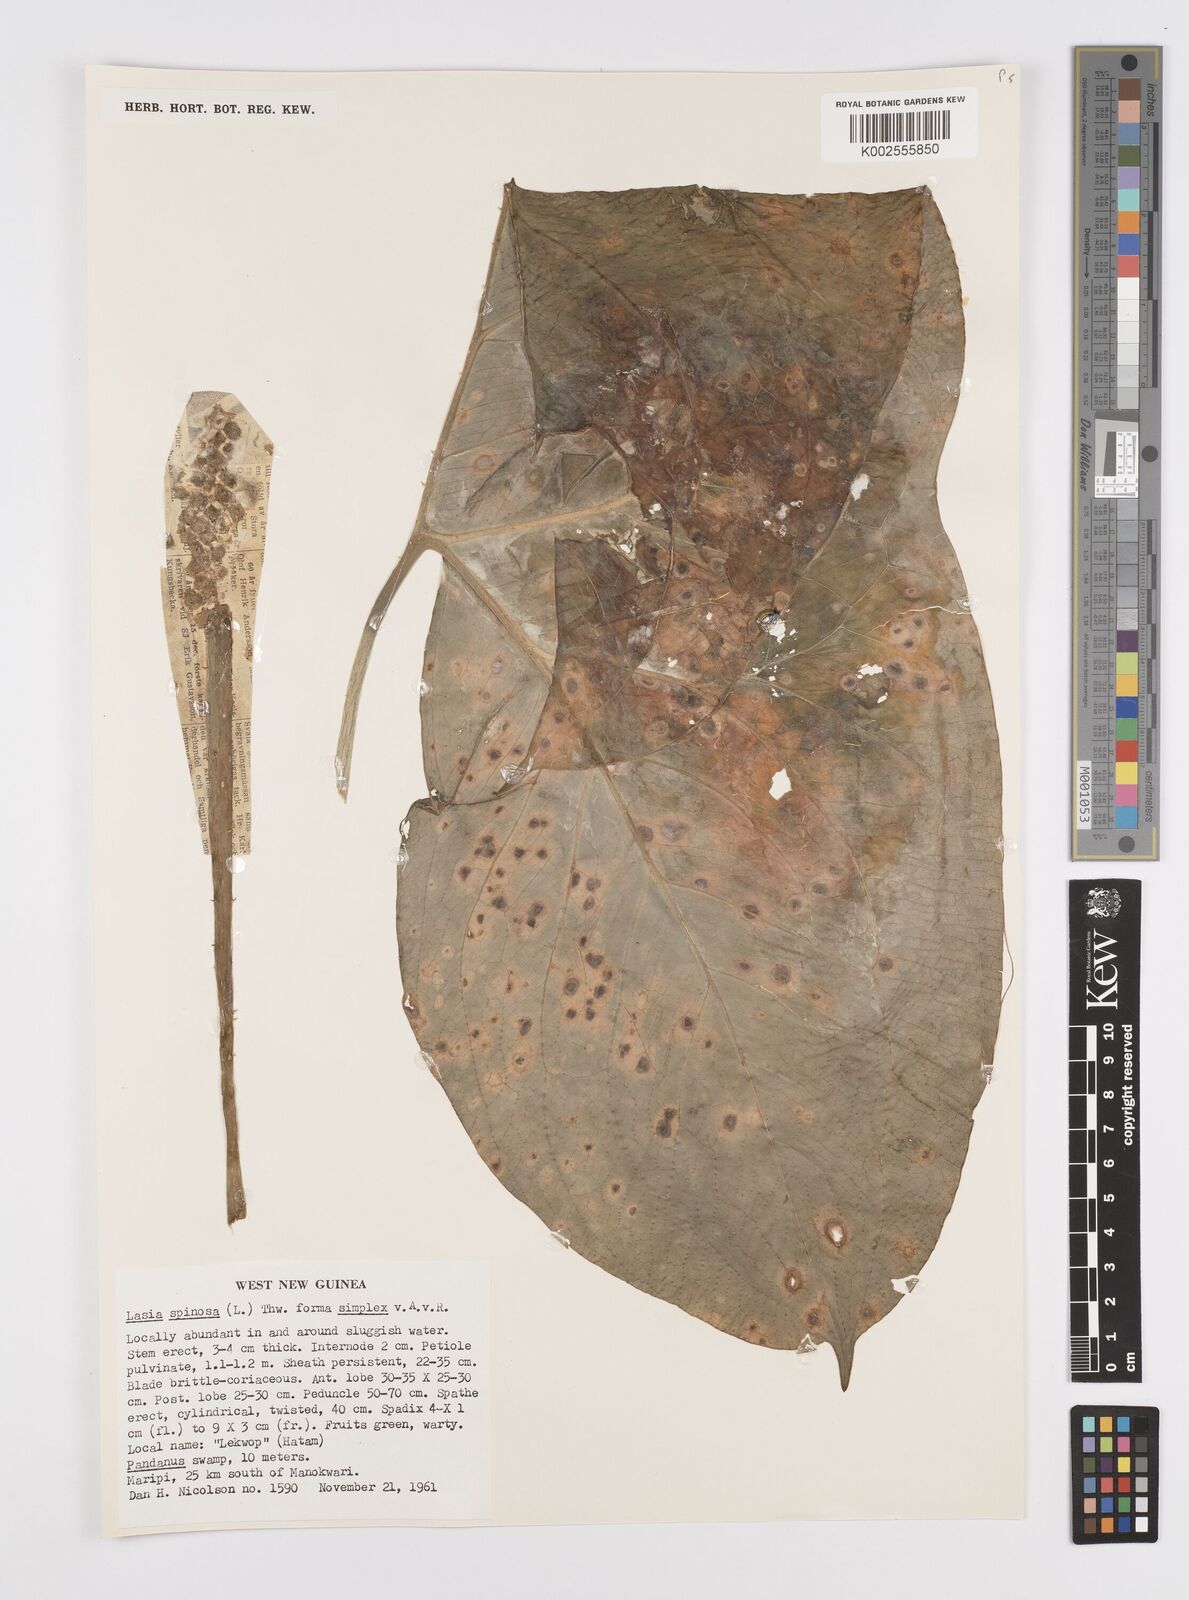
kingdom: Plantae
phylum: Tracheophyta
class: Liliopsida
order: Alismatales
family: Araceae
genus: Lasia
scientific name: Lasia spinosa
